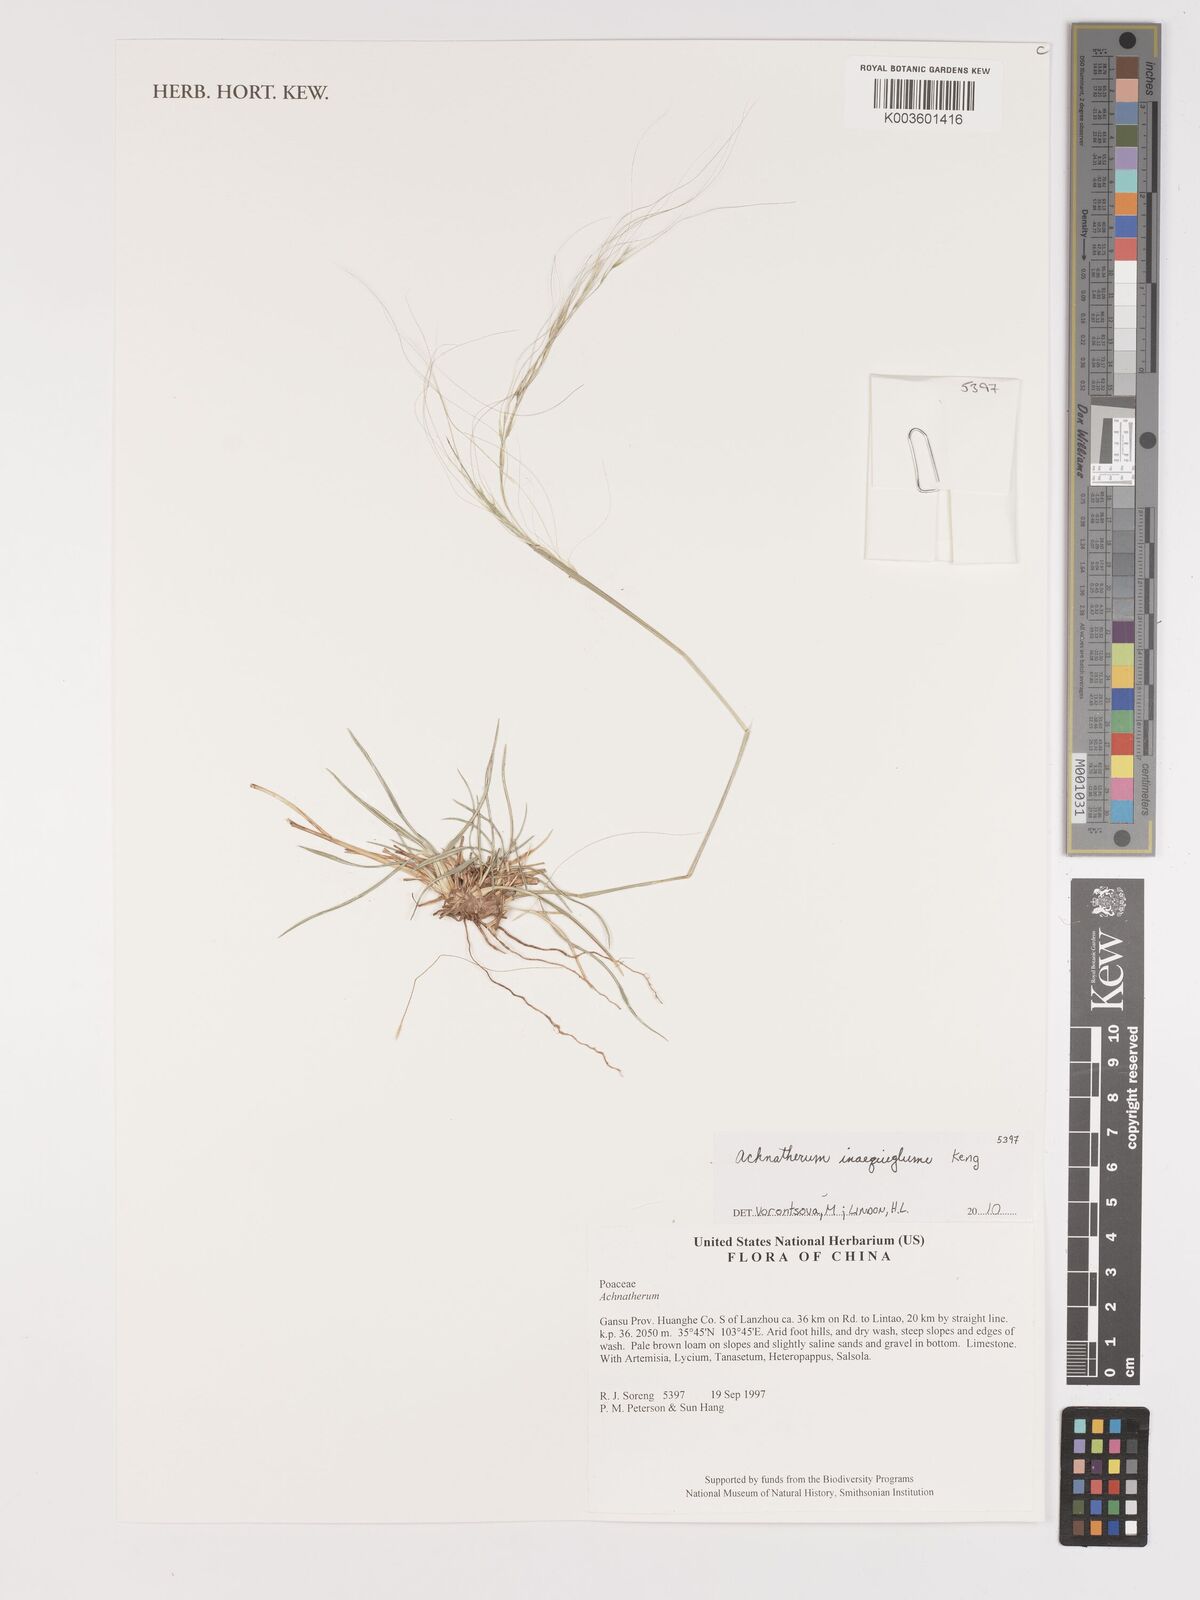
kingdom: Plantae
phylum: Tracheophyta
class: Liliopsida
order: Poales
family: Poaceae
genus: Stipa
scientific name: Stipa
